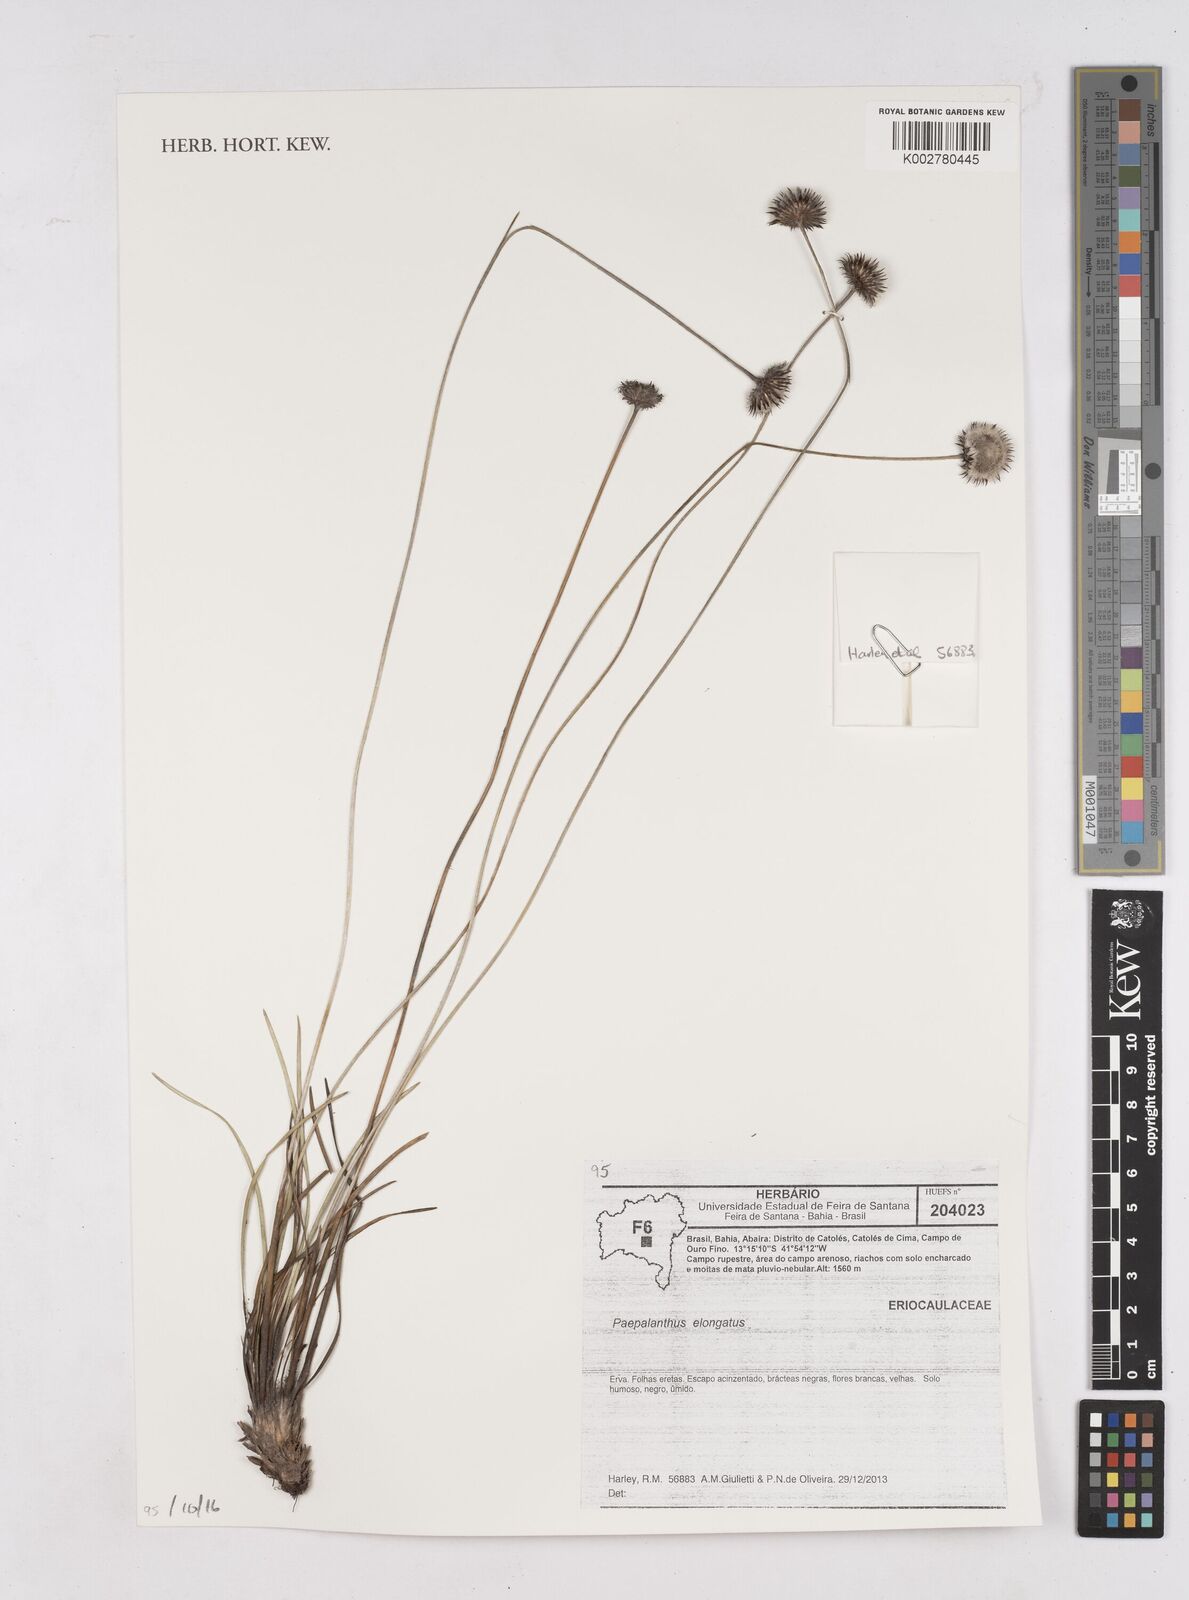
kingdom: Plantae
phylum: Tracheophyta
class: Liliopsida
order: Poales
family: Eriocaulaceae
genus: Paepalanthus
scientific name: Paepalanthus elongatus
